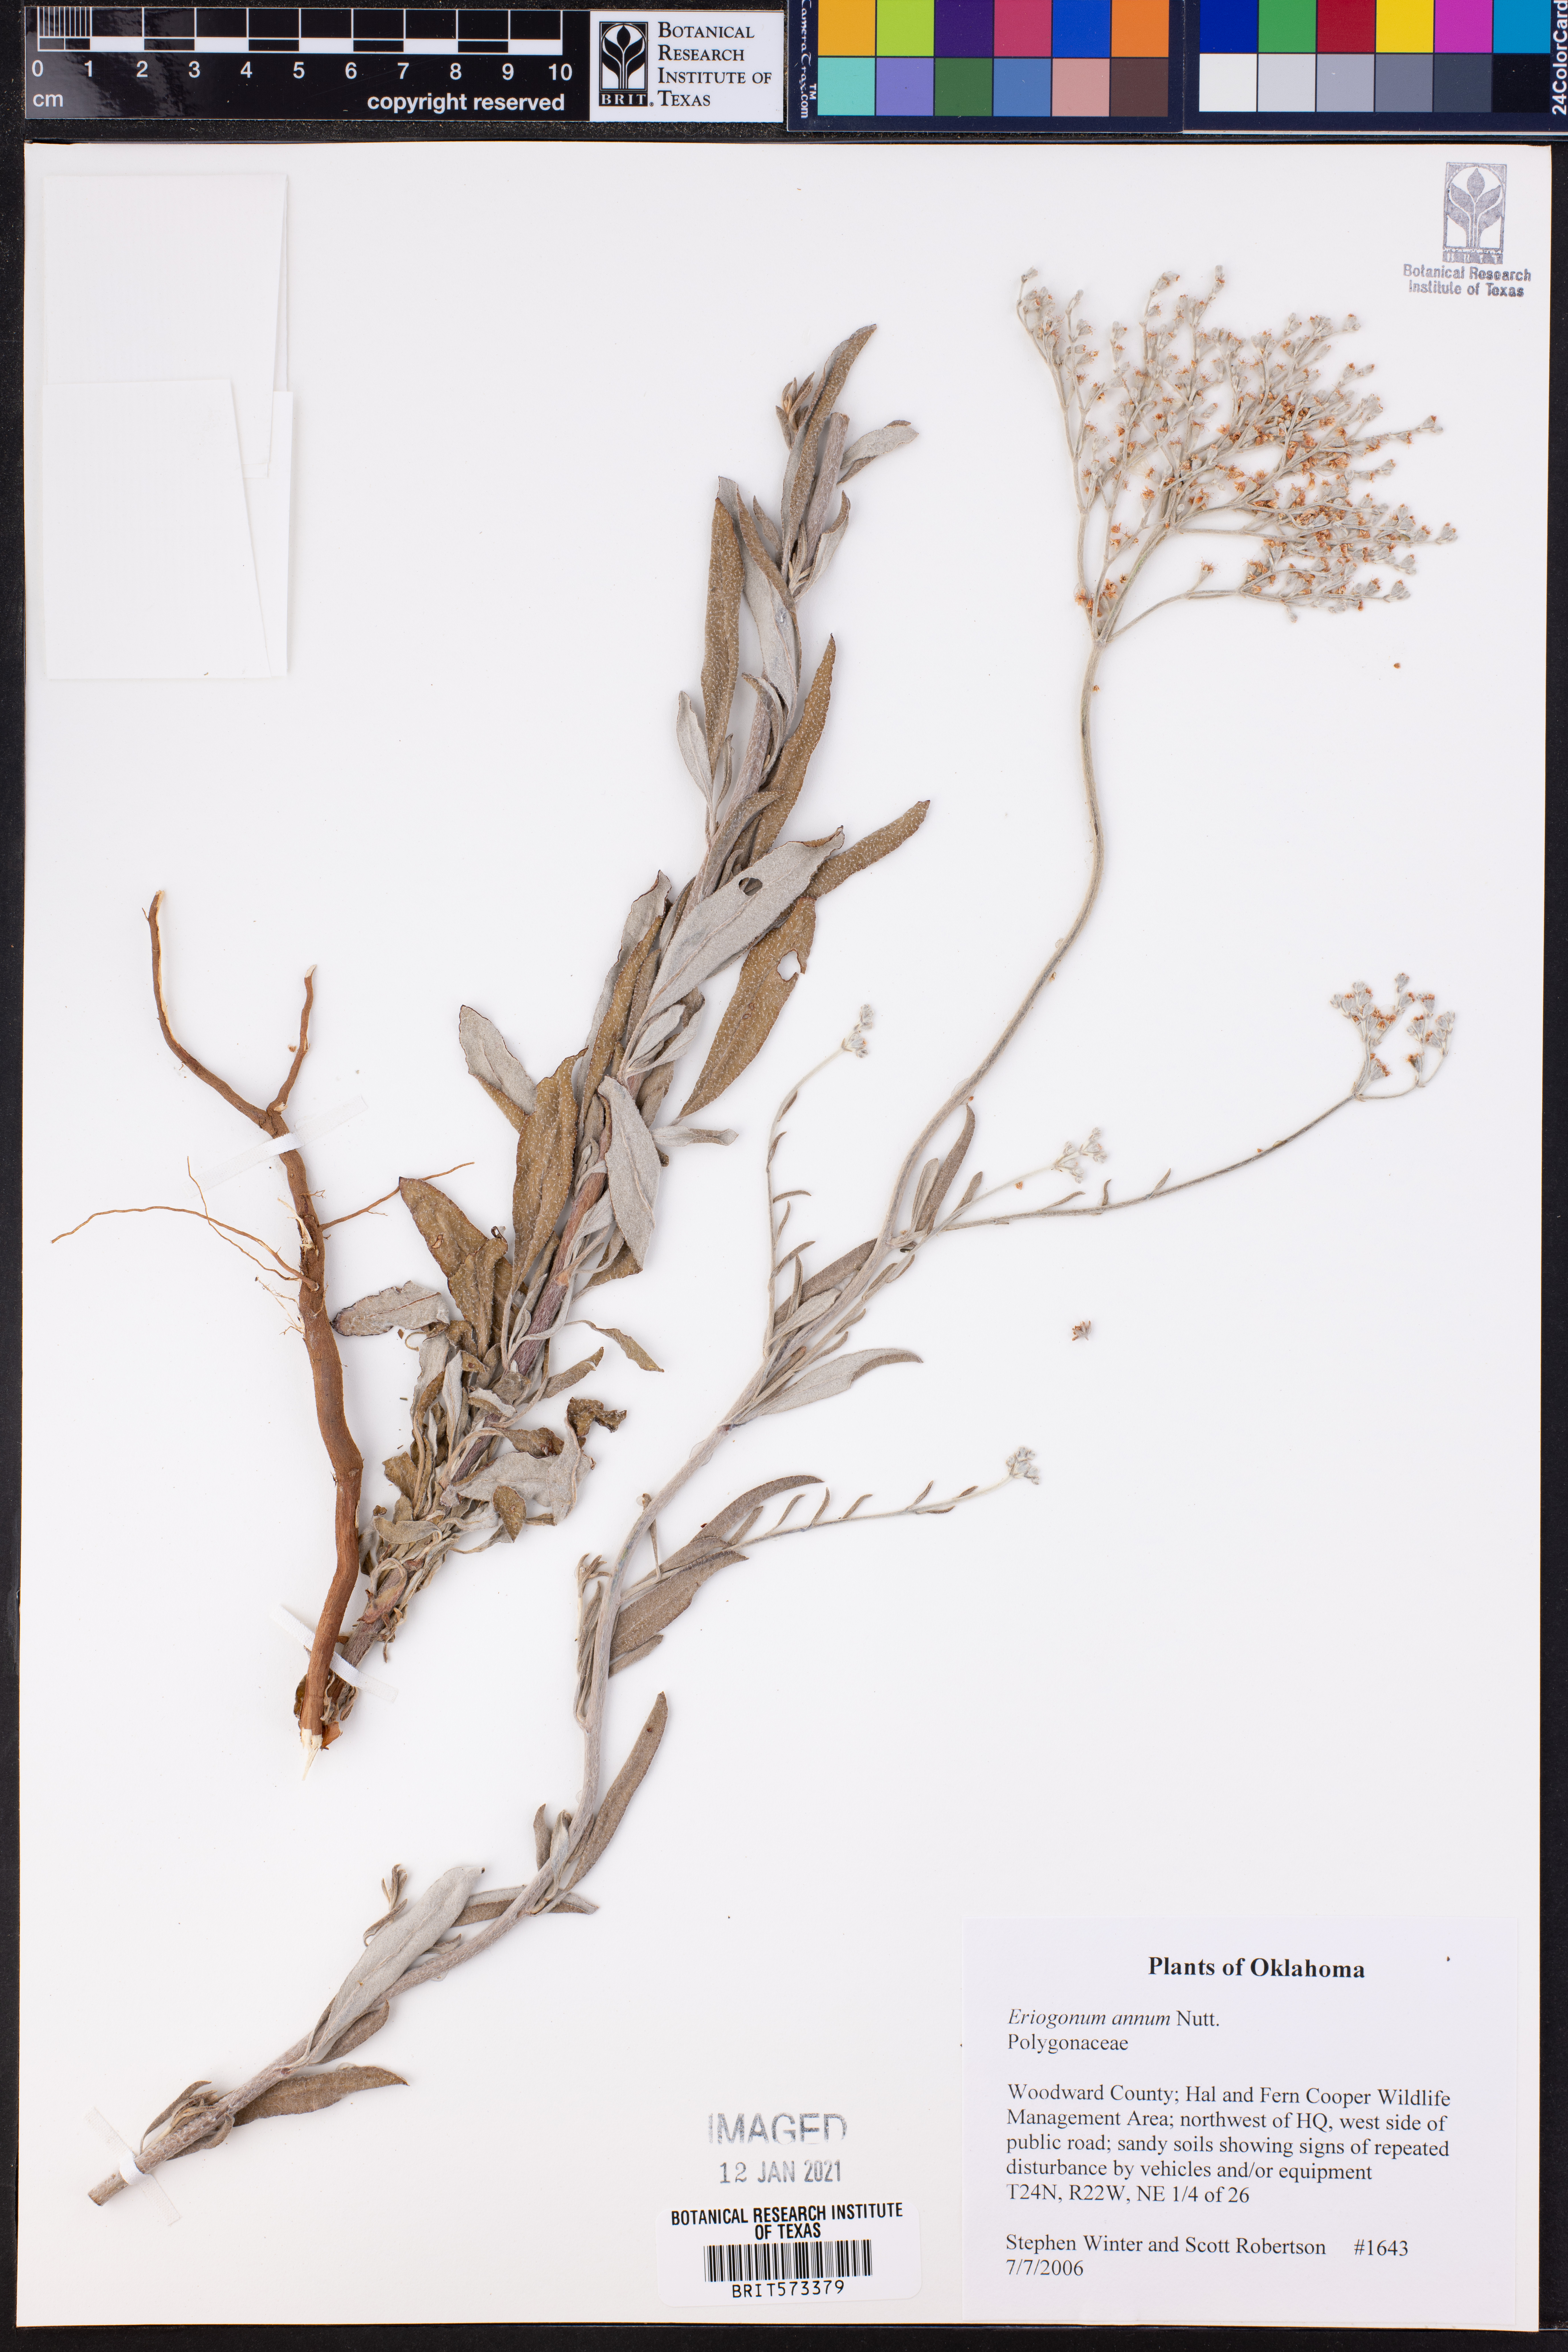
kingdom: Plantae
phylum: Tracheophyta
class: Magnoliopsida
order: Caryophyllales
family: Polygonaceae
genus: Eriogonum
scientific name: Eriogonum annuum
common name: Annual wild buckwheat
